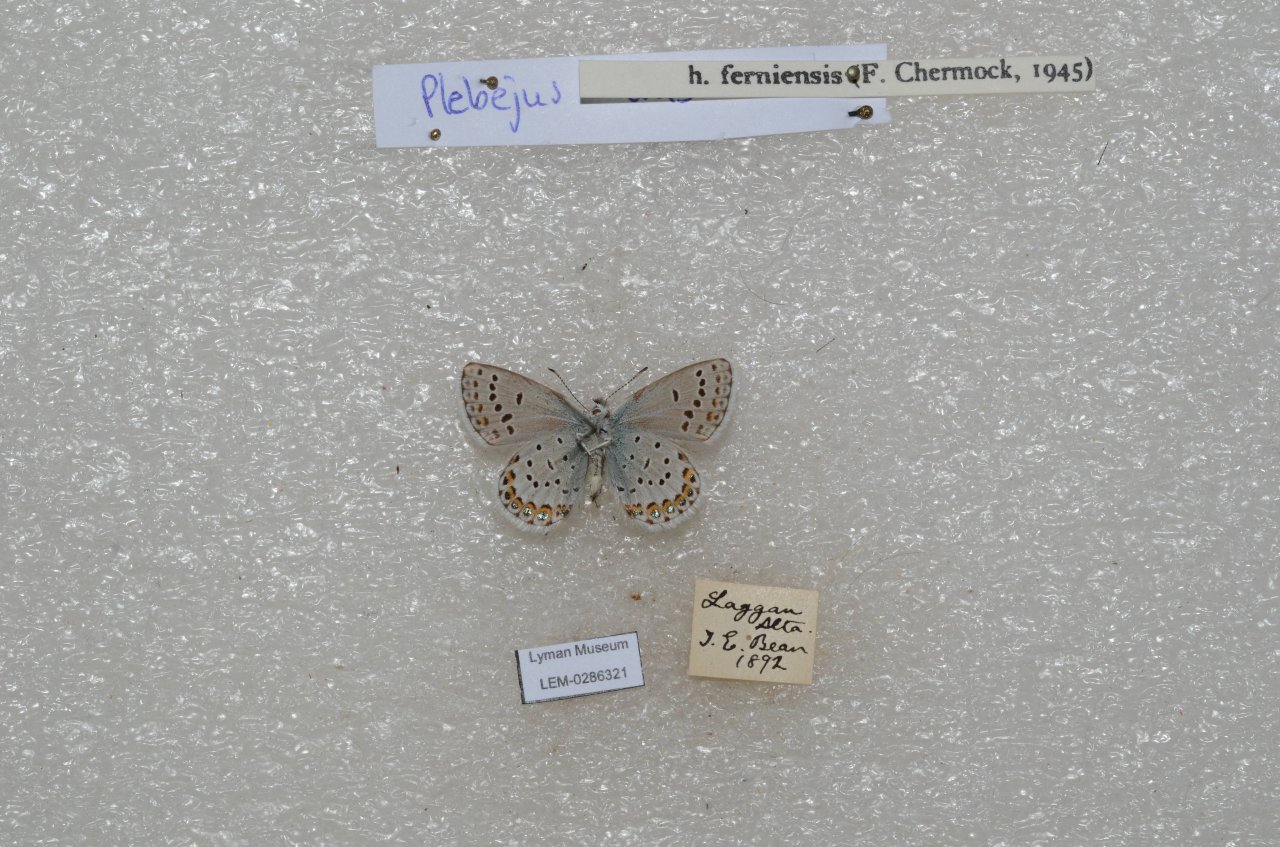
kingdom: Animalia
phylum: Arthropoda
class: Insecta
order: Lepidoptera
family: Lycaenidae
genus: Lycaeides
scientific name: Lycaeides idas
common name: Northern Blue
